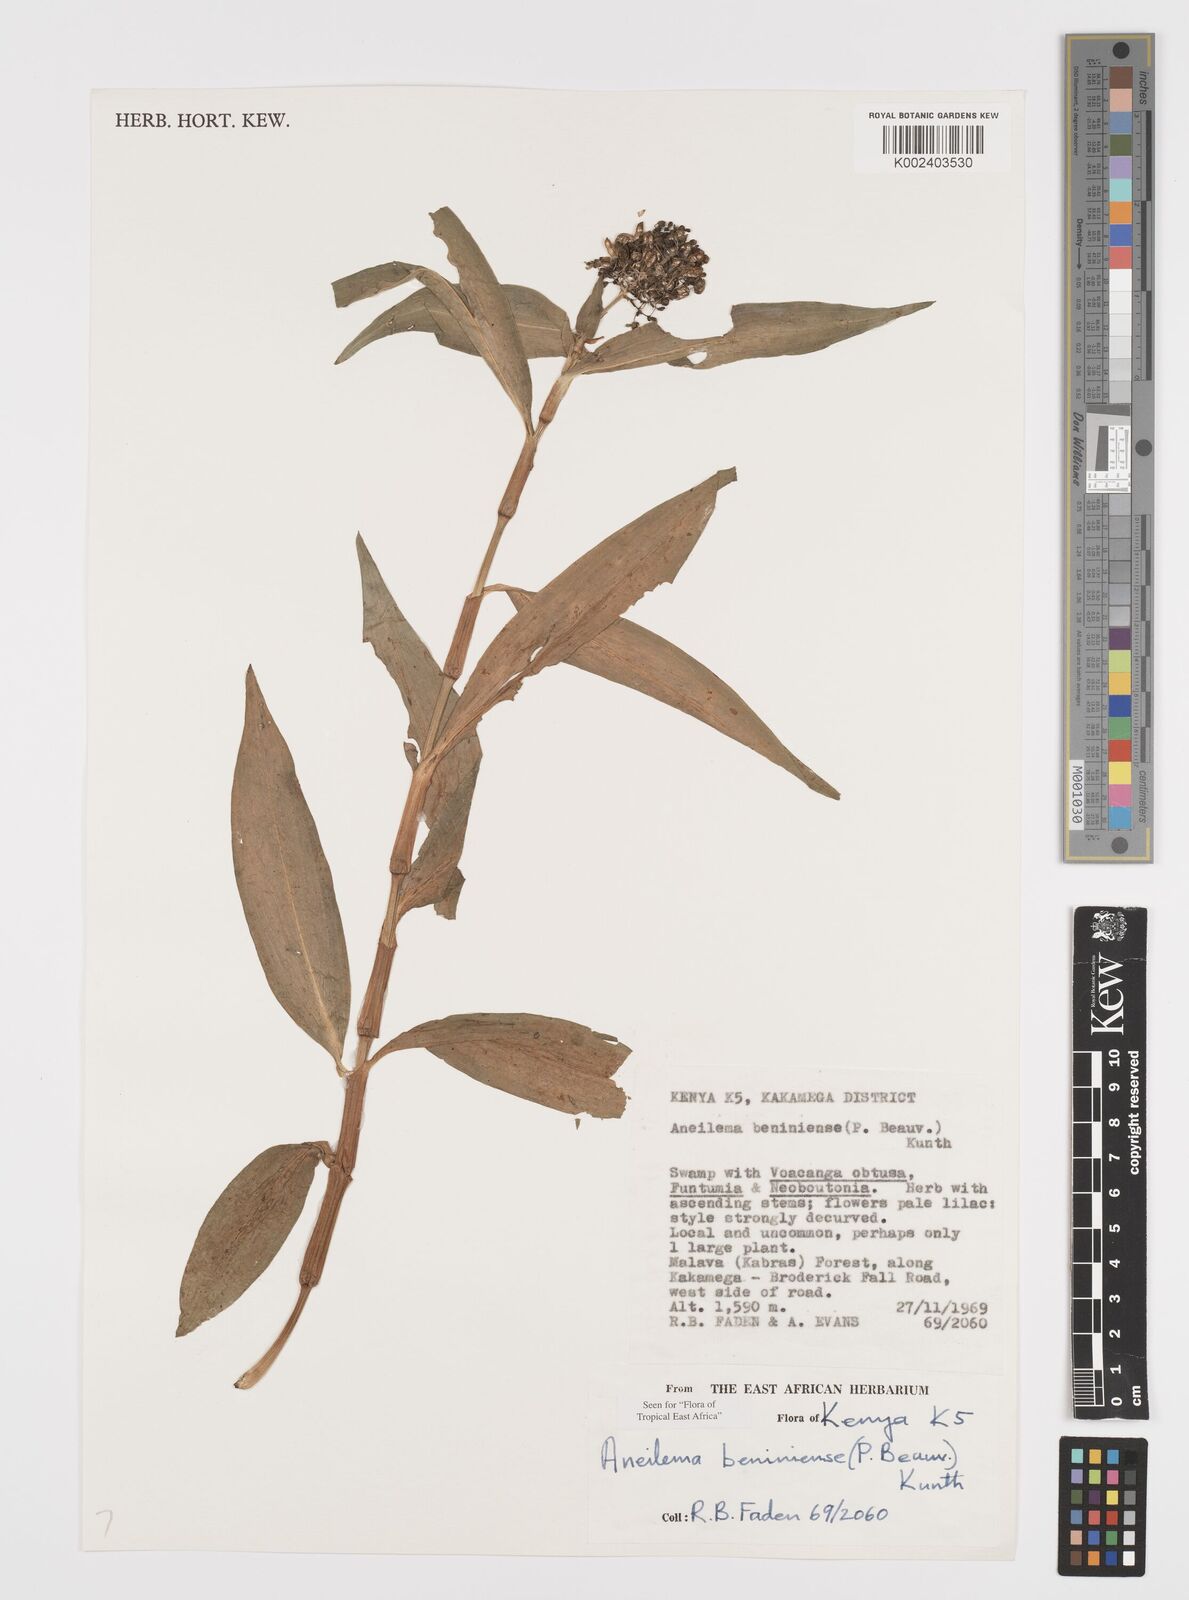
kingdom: Plantae
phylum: Tracheophyta
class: Liliopsida
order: Commelinales
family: Commelinaceae
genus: Aneilema
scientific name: Aneilema beniniense
